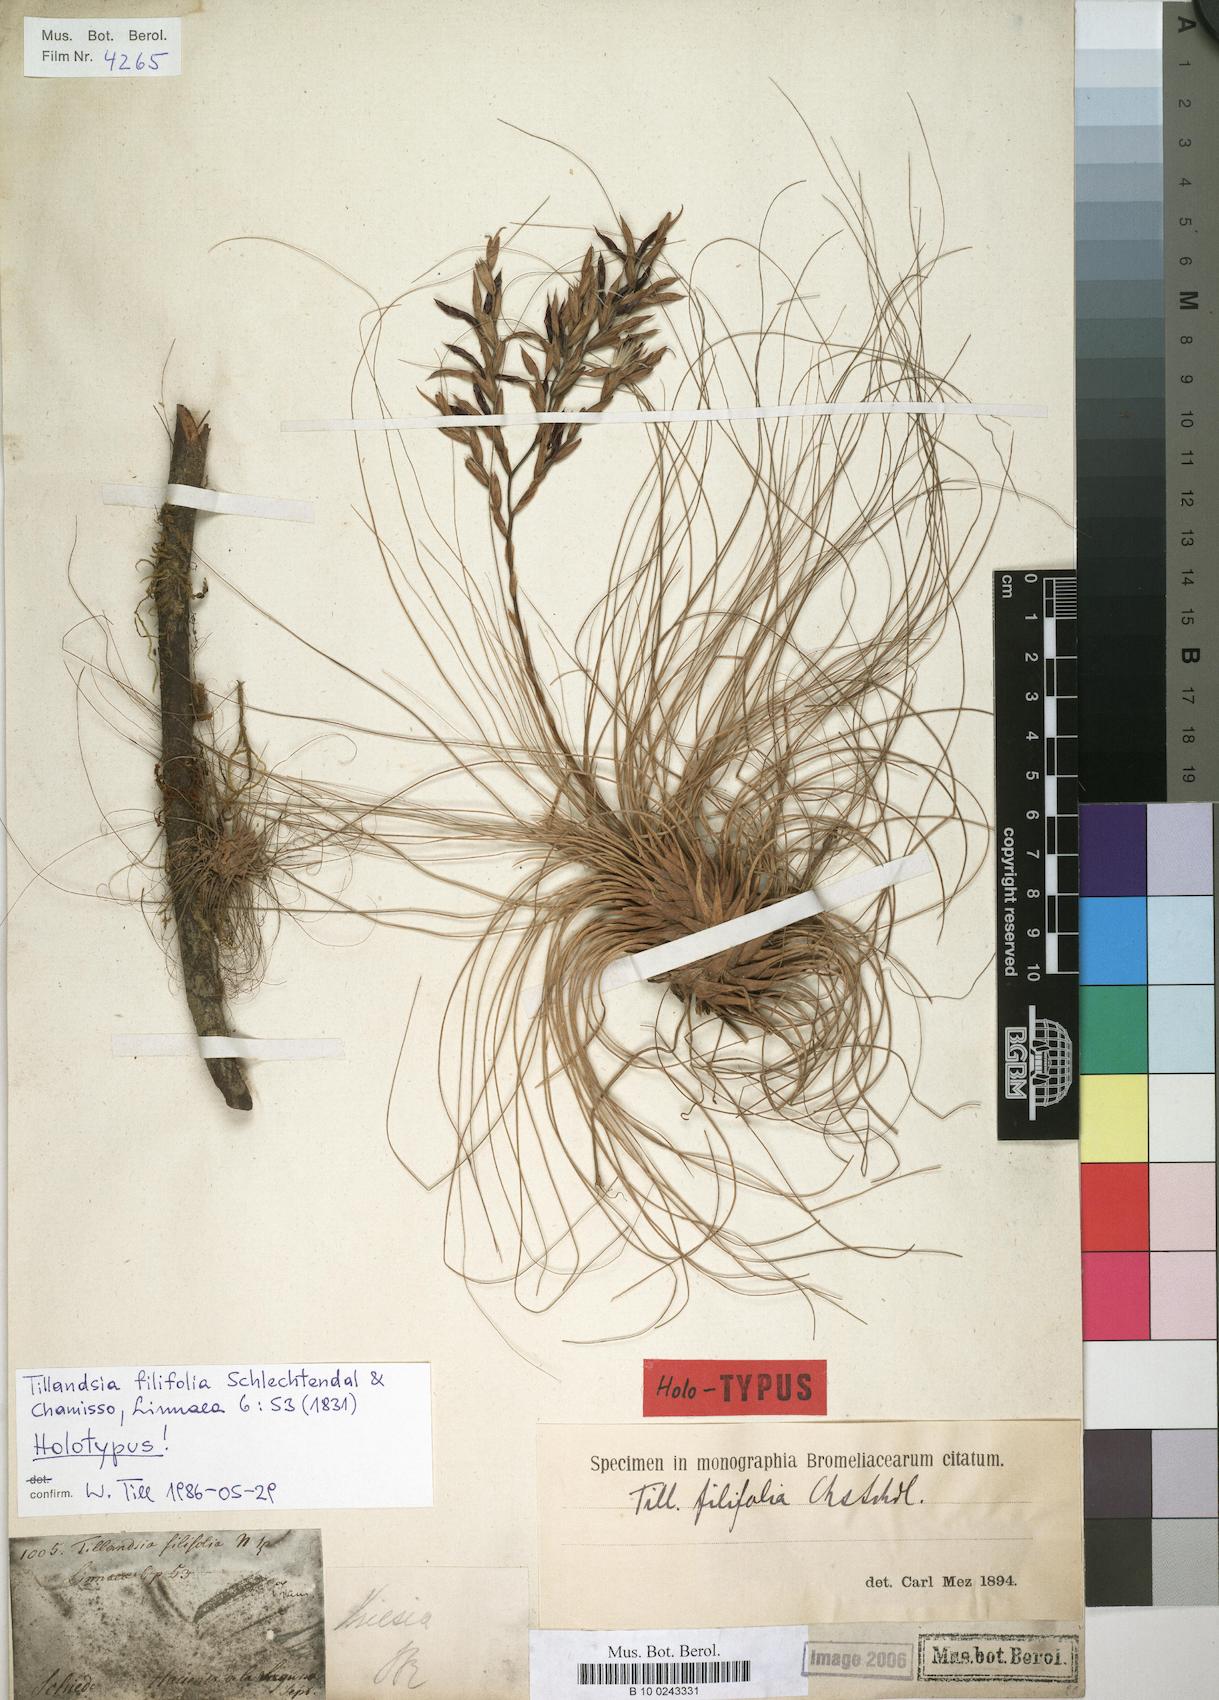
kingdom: Plantae
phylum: Tracheophyta
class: Liliopsida
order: Poales
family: Bromeliaceae
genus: Tillandsia
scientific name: Tillandsia filifolia
